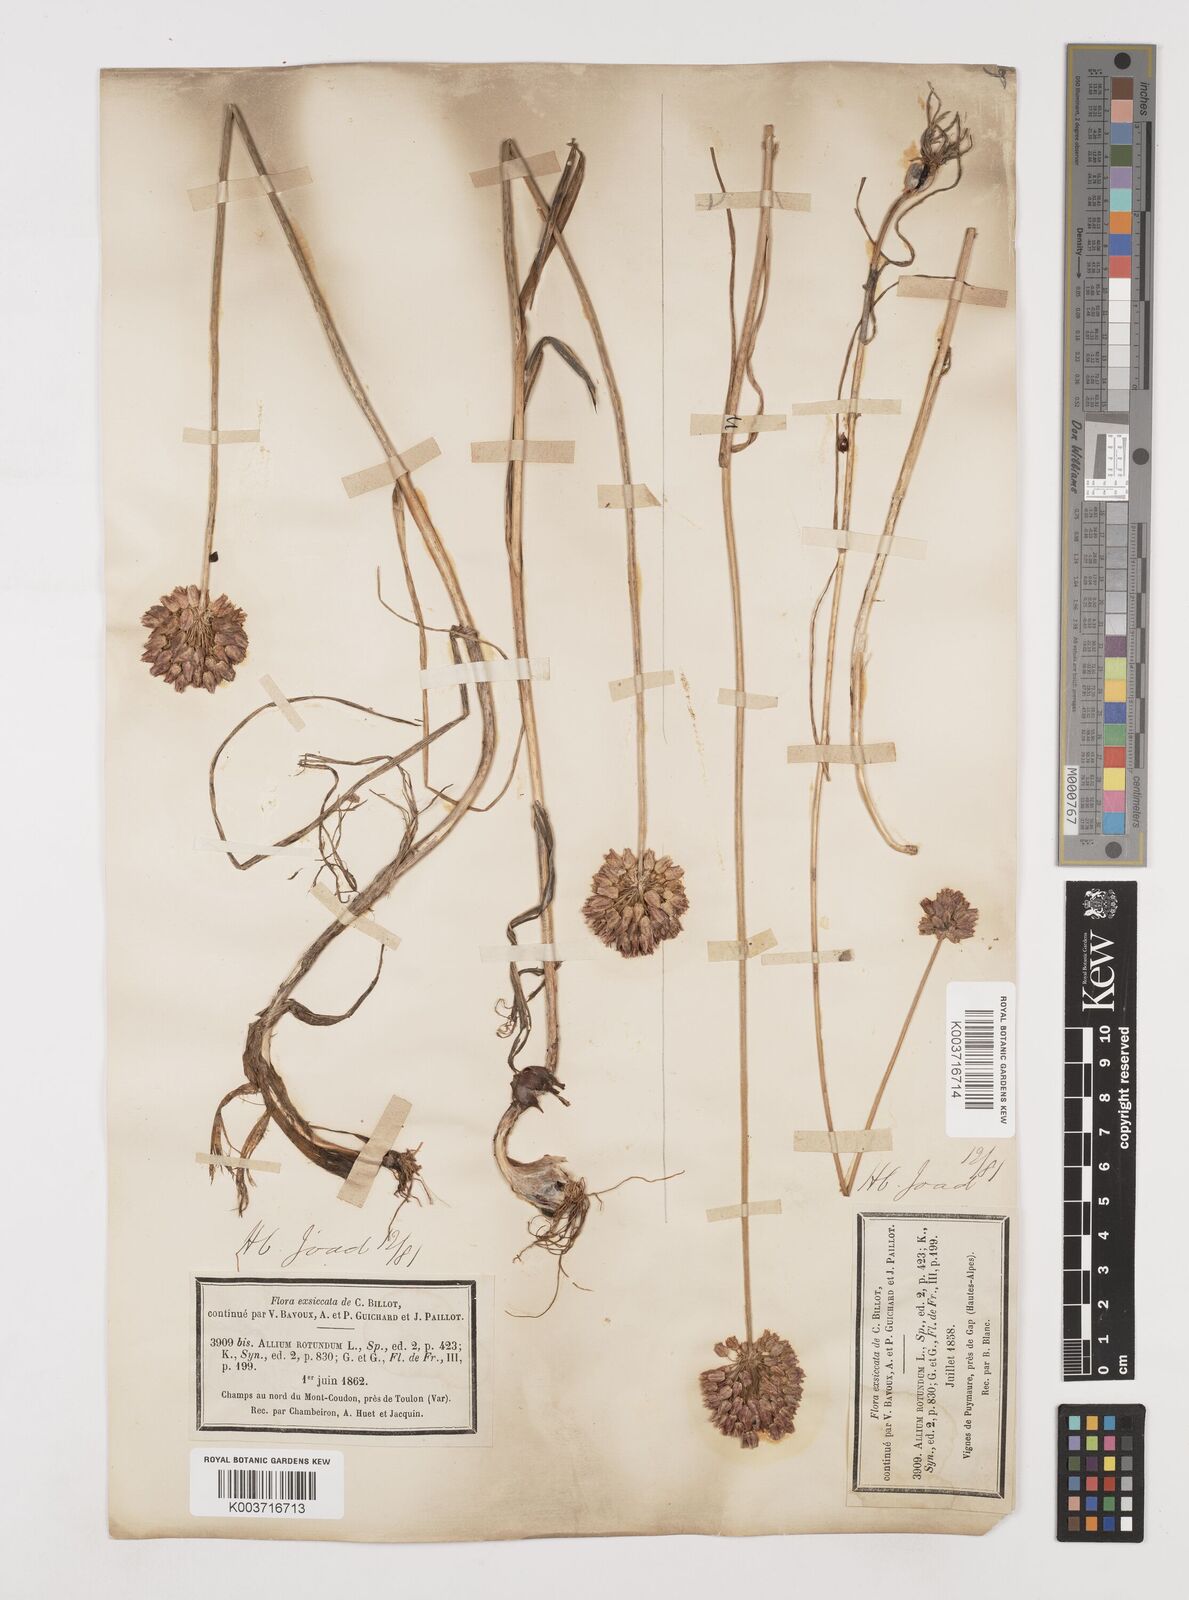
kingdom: Plantae
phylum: Tracheophyta
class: Liliopsida
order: Asparagales
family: Amaryllidaceae
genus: Allium
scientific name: Allium rotundum
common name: Sand leek
